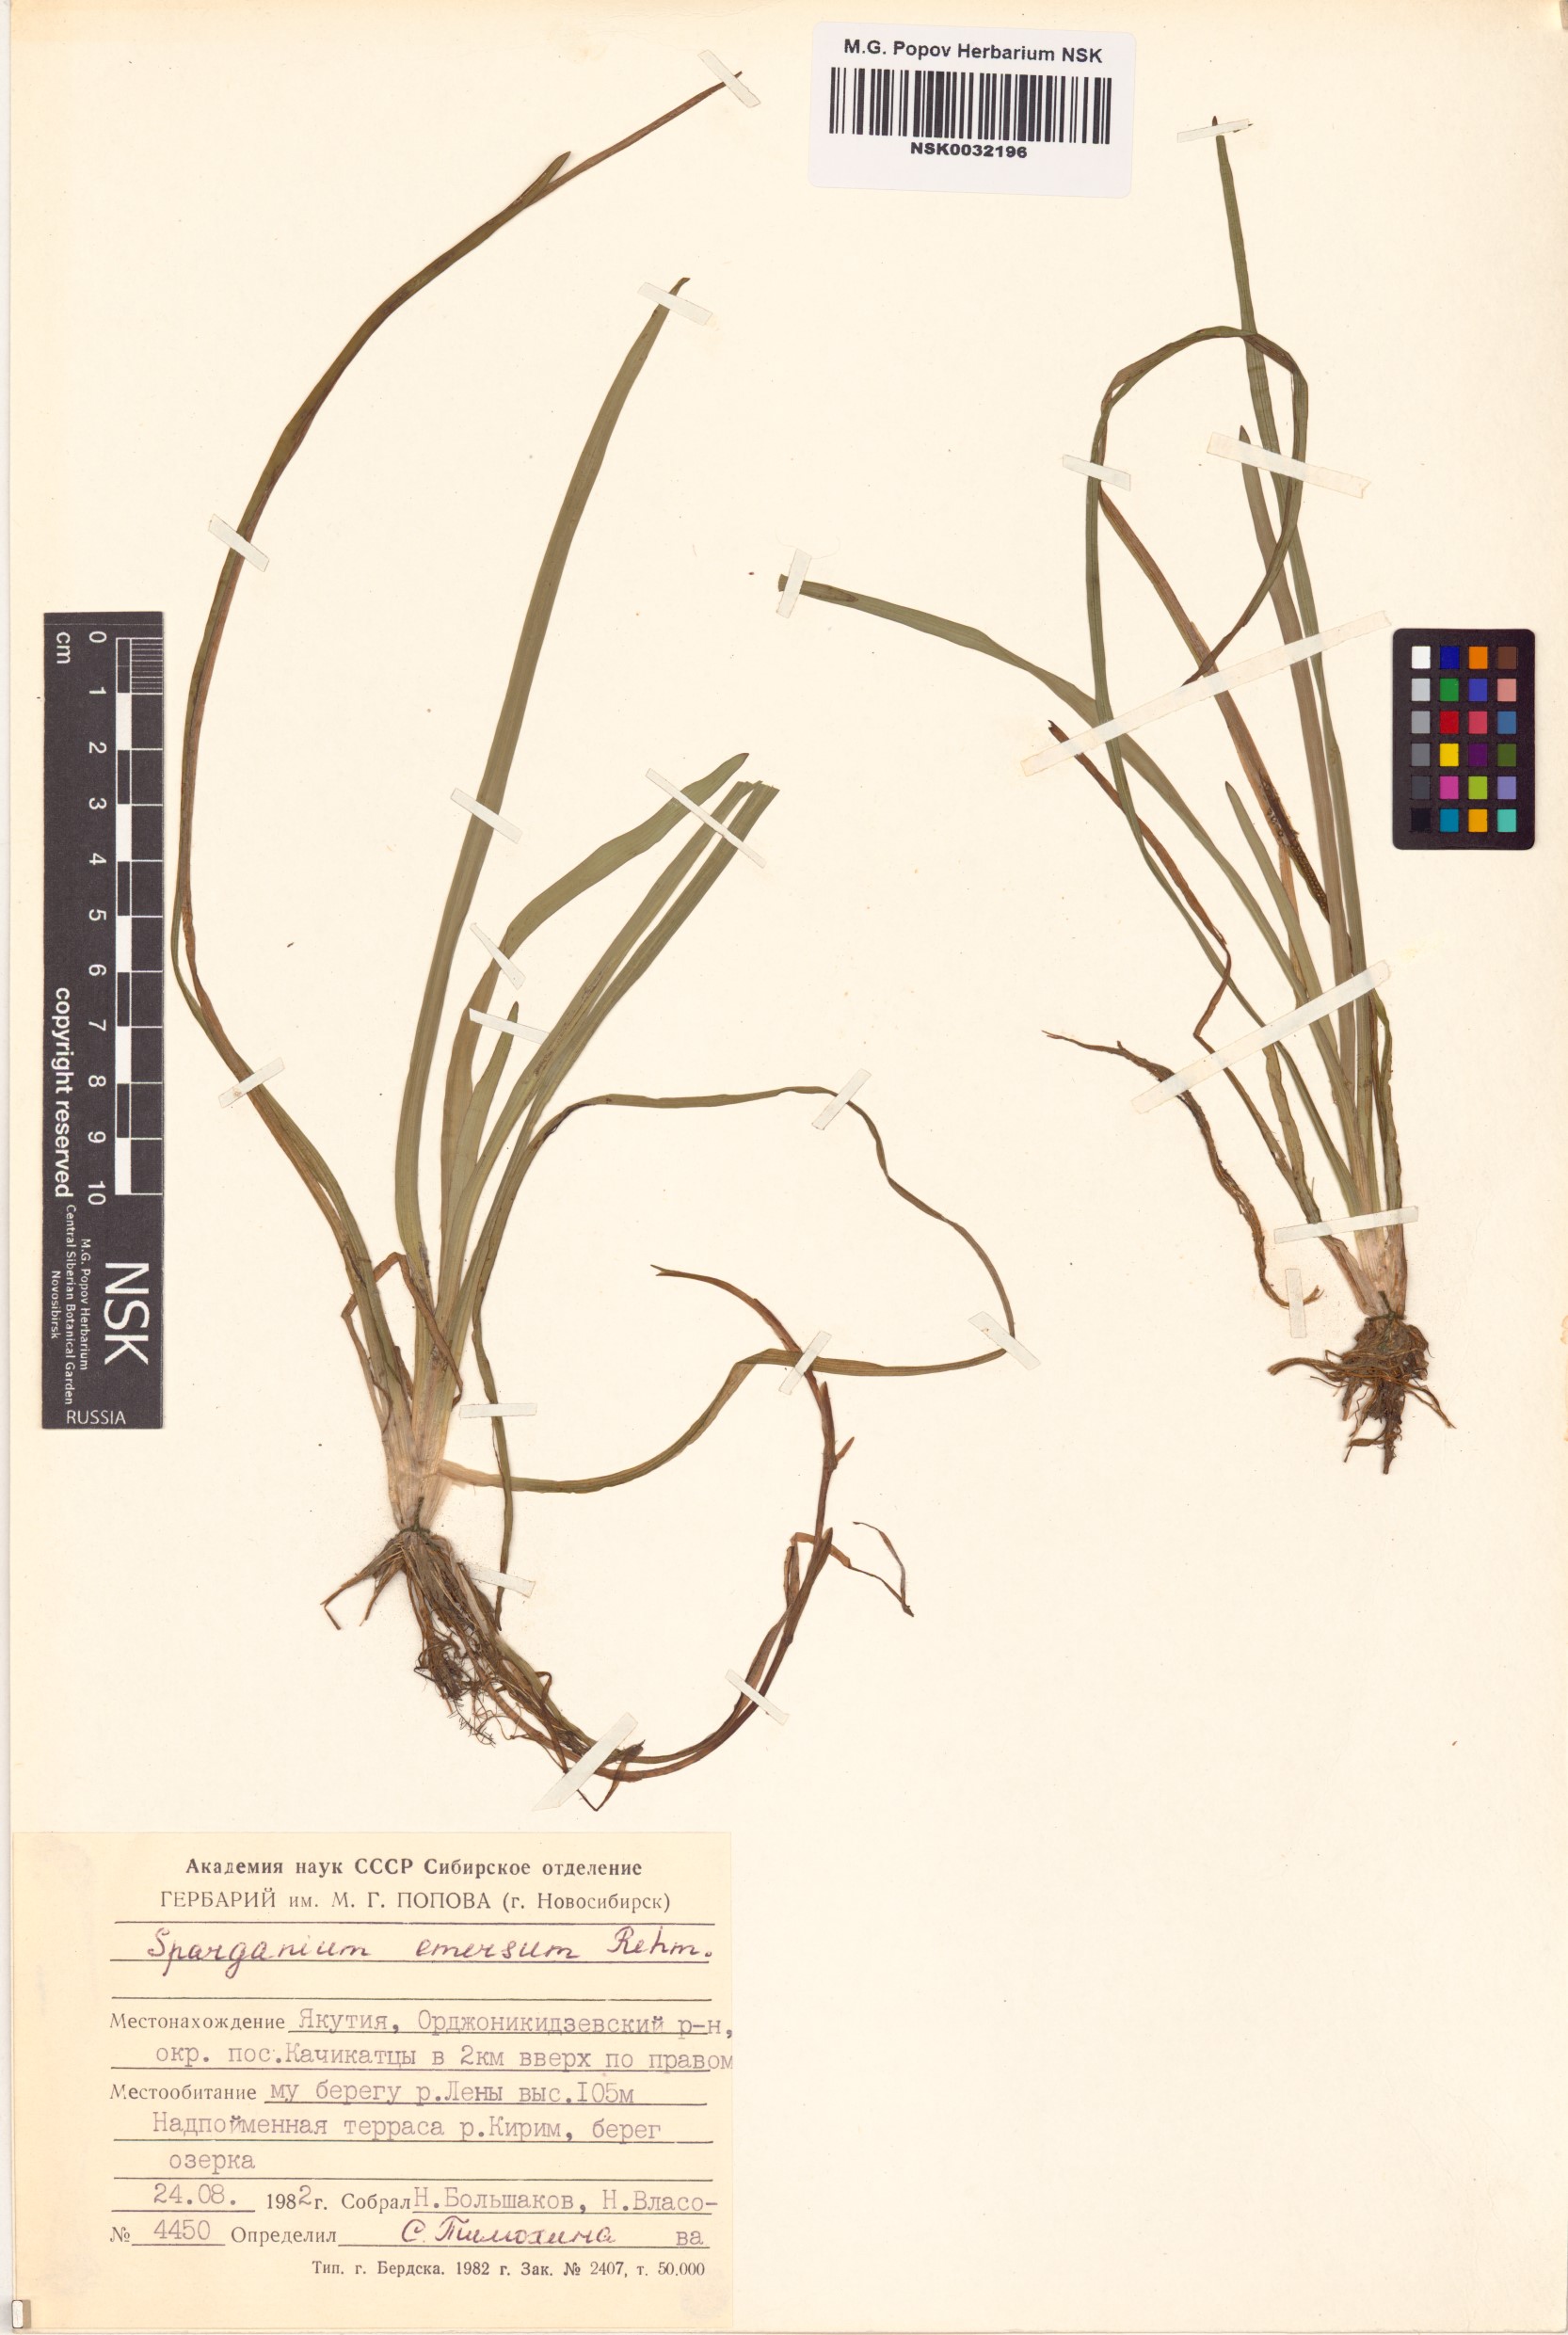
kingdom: Plantae
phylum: Tracheophyta
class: Liliopsida
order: Poales
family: Typhaceae
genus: Sparganium
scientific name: Sparganium emersum
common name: Unbranched bur-reed
